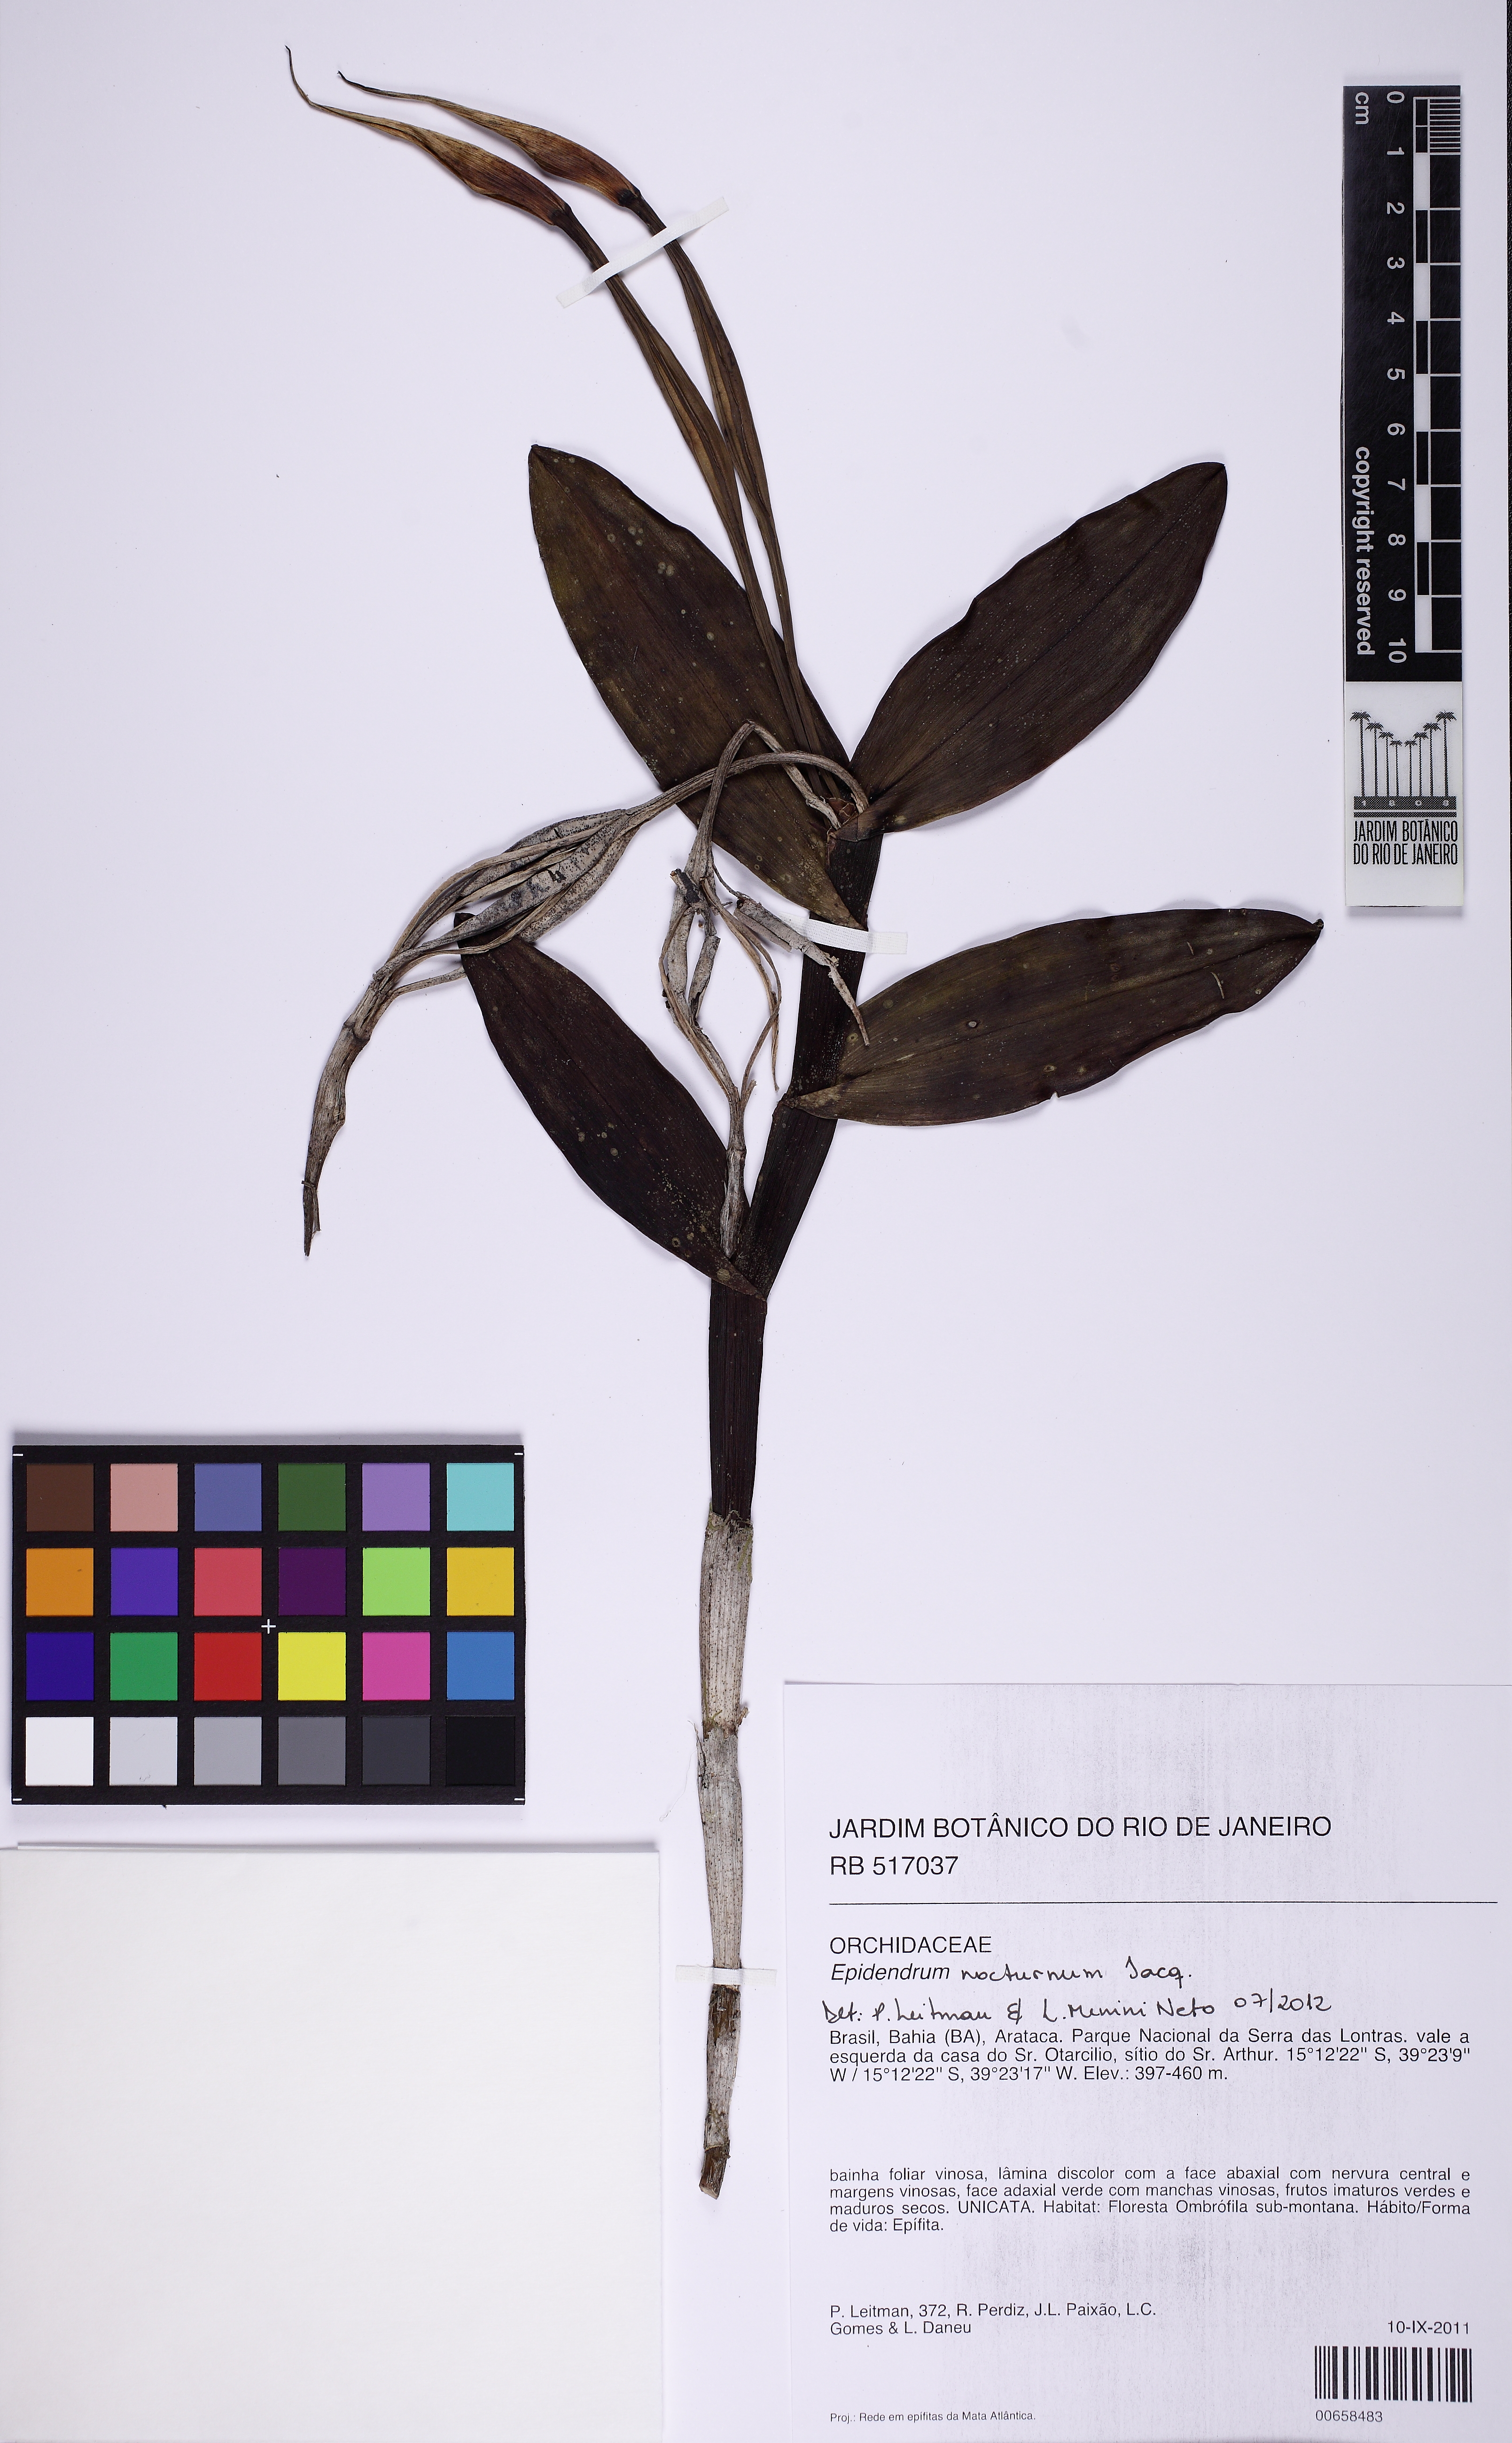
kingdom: Plantae
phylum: Tracheophyta
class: Liliopsida
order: Asparagales
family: Orchidaceae
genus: Epidendrum
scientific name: Epidendrum carpophorum
